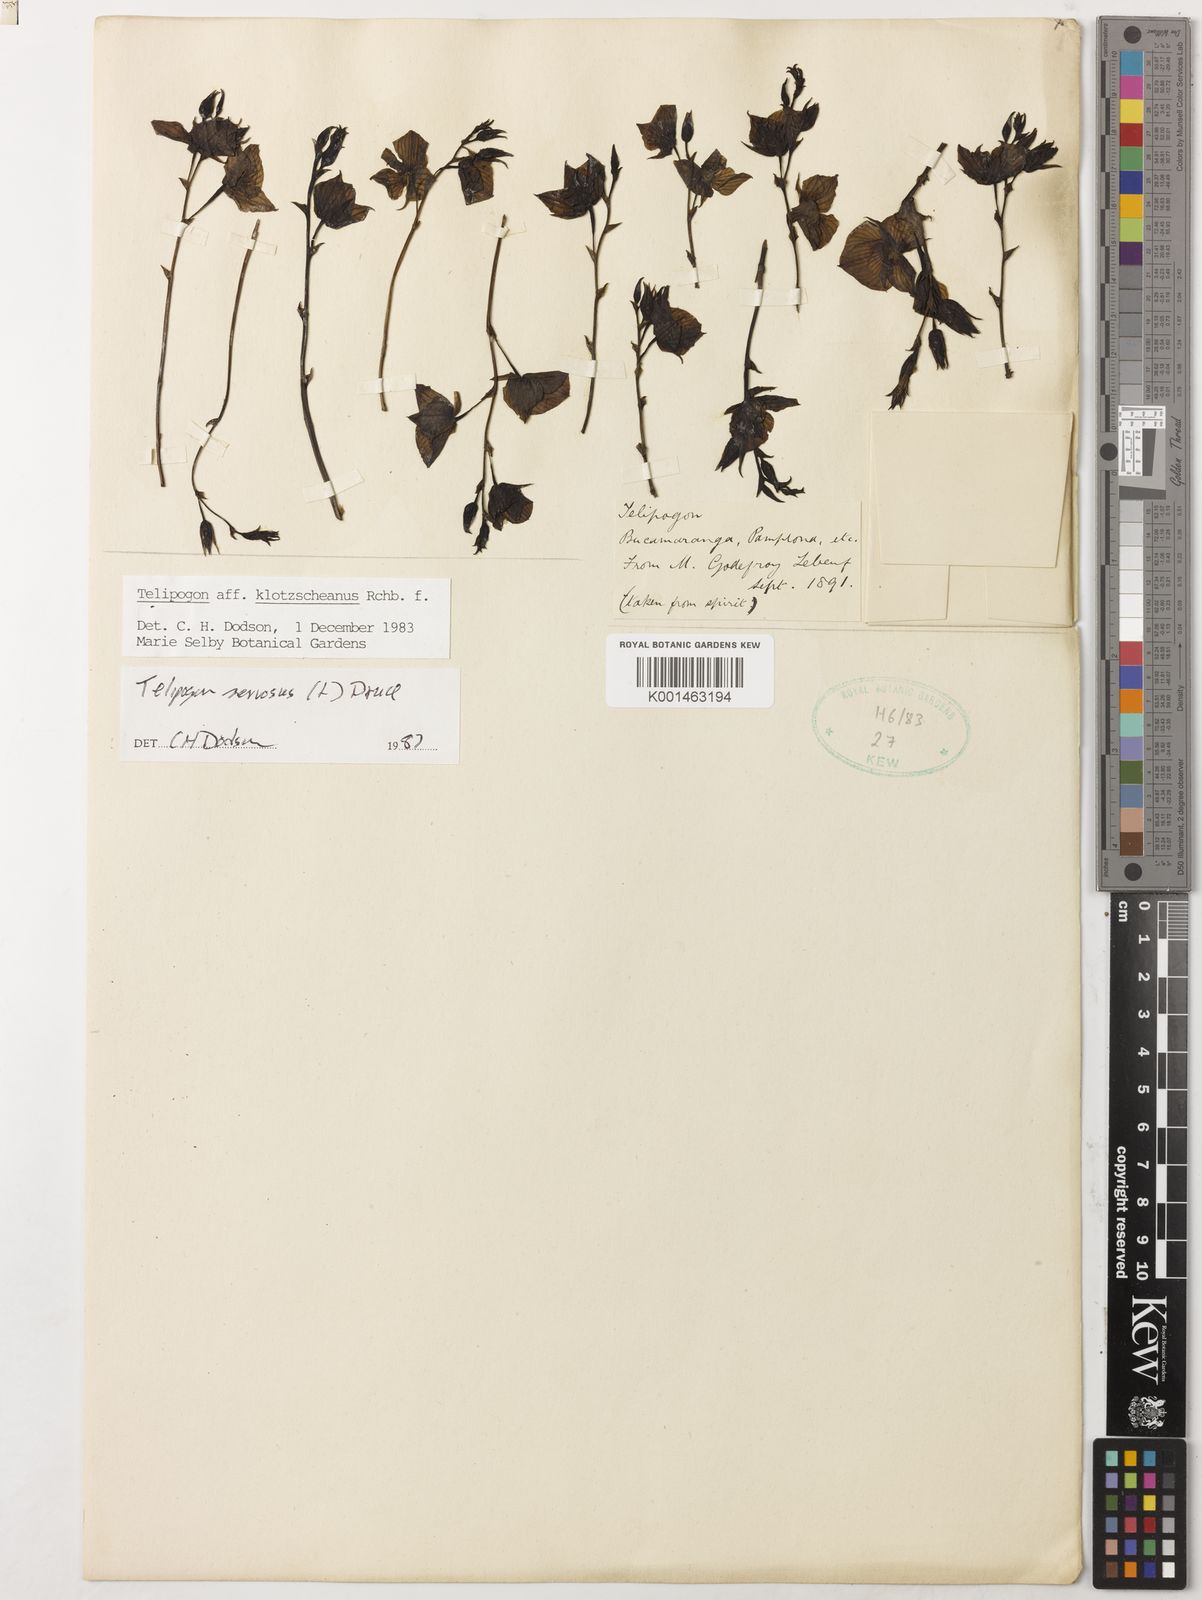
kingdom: Plantae
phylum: Tracheophyta
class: Liliopsida
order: Asparagales
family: Orchidaceae
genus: Telipogon
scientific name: Telipogon nervosus
